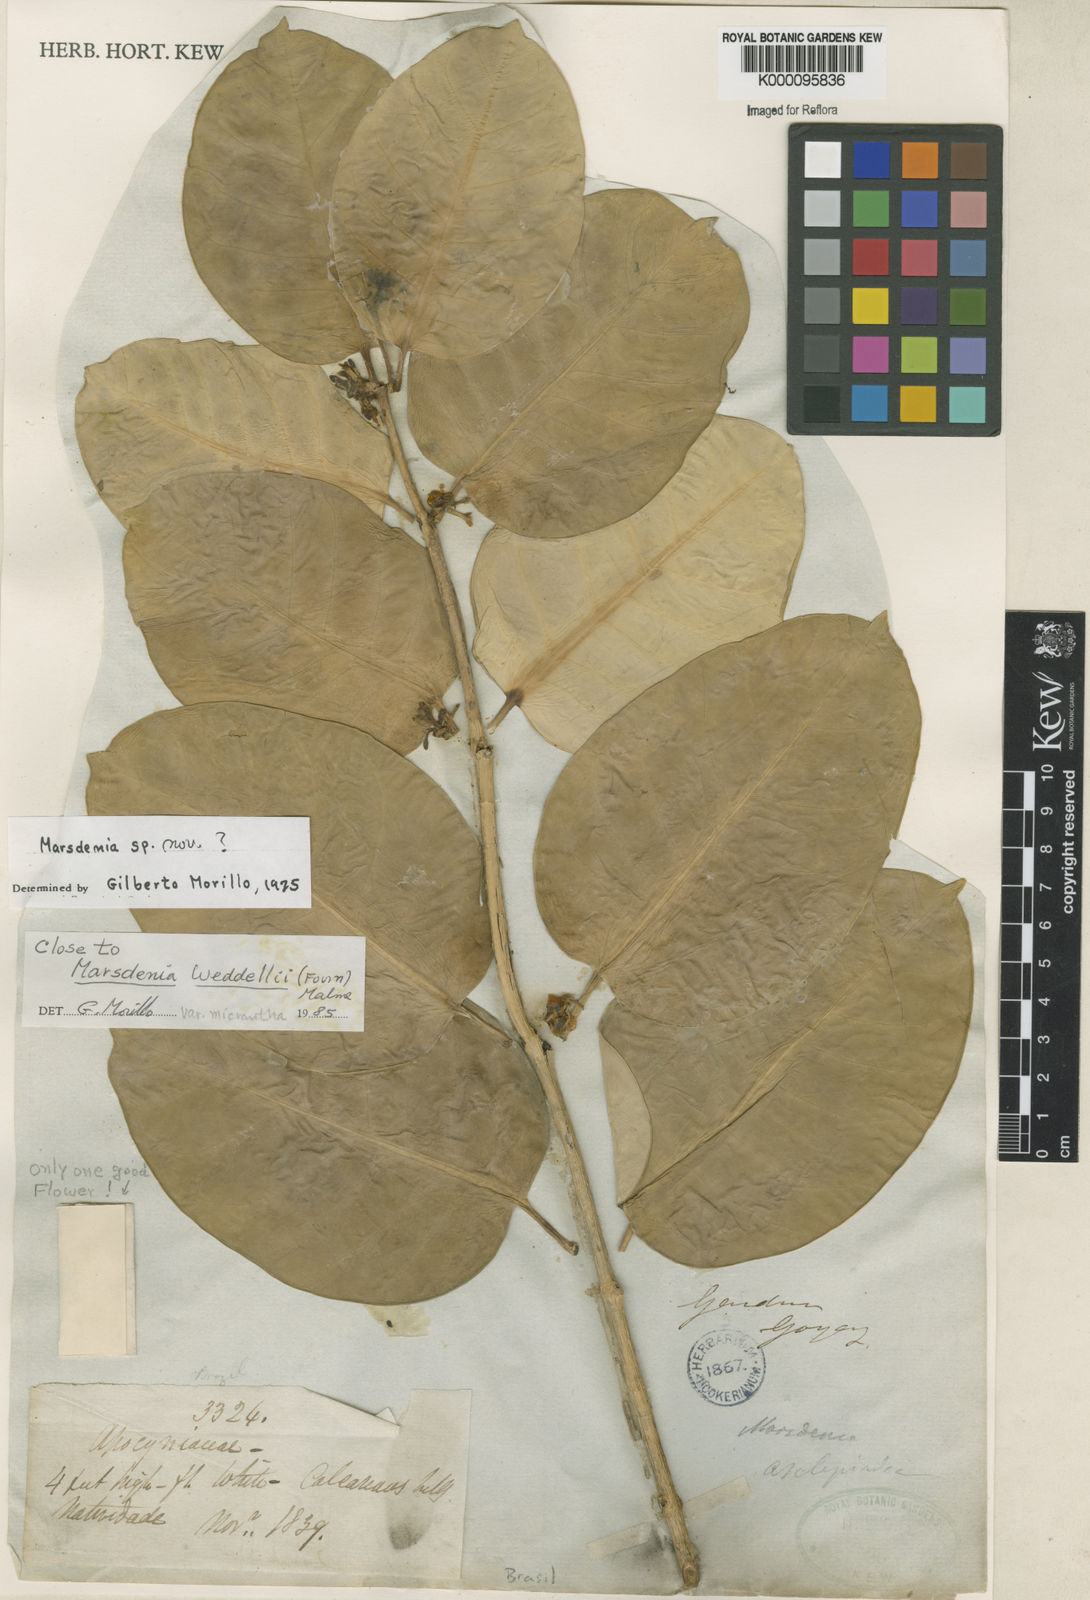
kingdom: Plantae
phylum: Tracheophyta
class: Magnoliopsida
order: Gentianales
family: Apocynaceae
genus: Ruehssia
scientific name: Ruehssia weddellii
